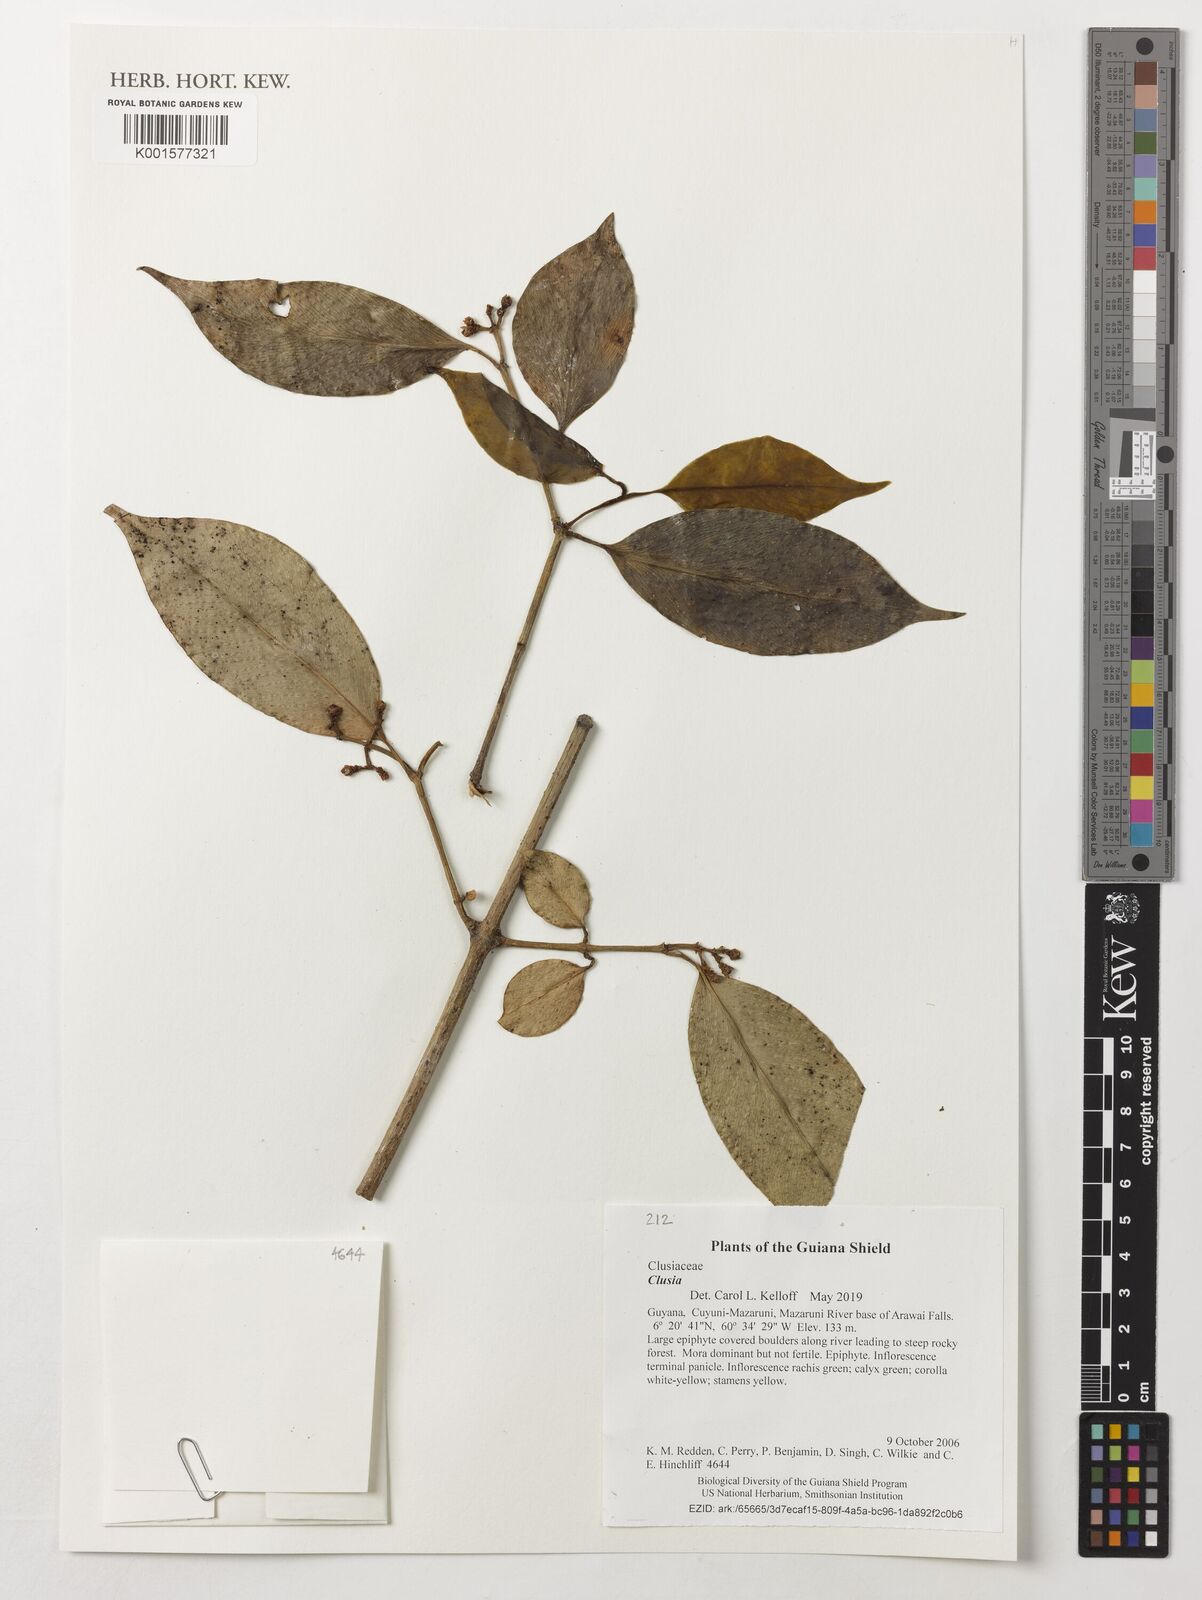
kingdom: Plantae
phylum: Tracheophyta
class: Magnoliopsida
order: Malpighiales
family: Clusiaceae
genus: Clusia
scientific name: Clusia
